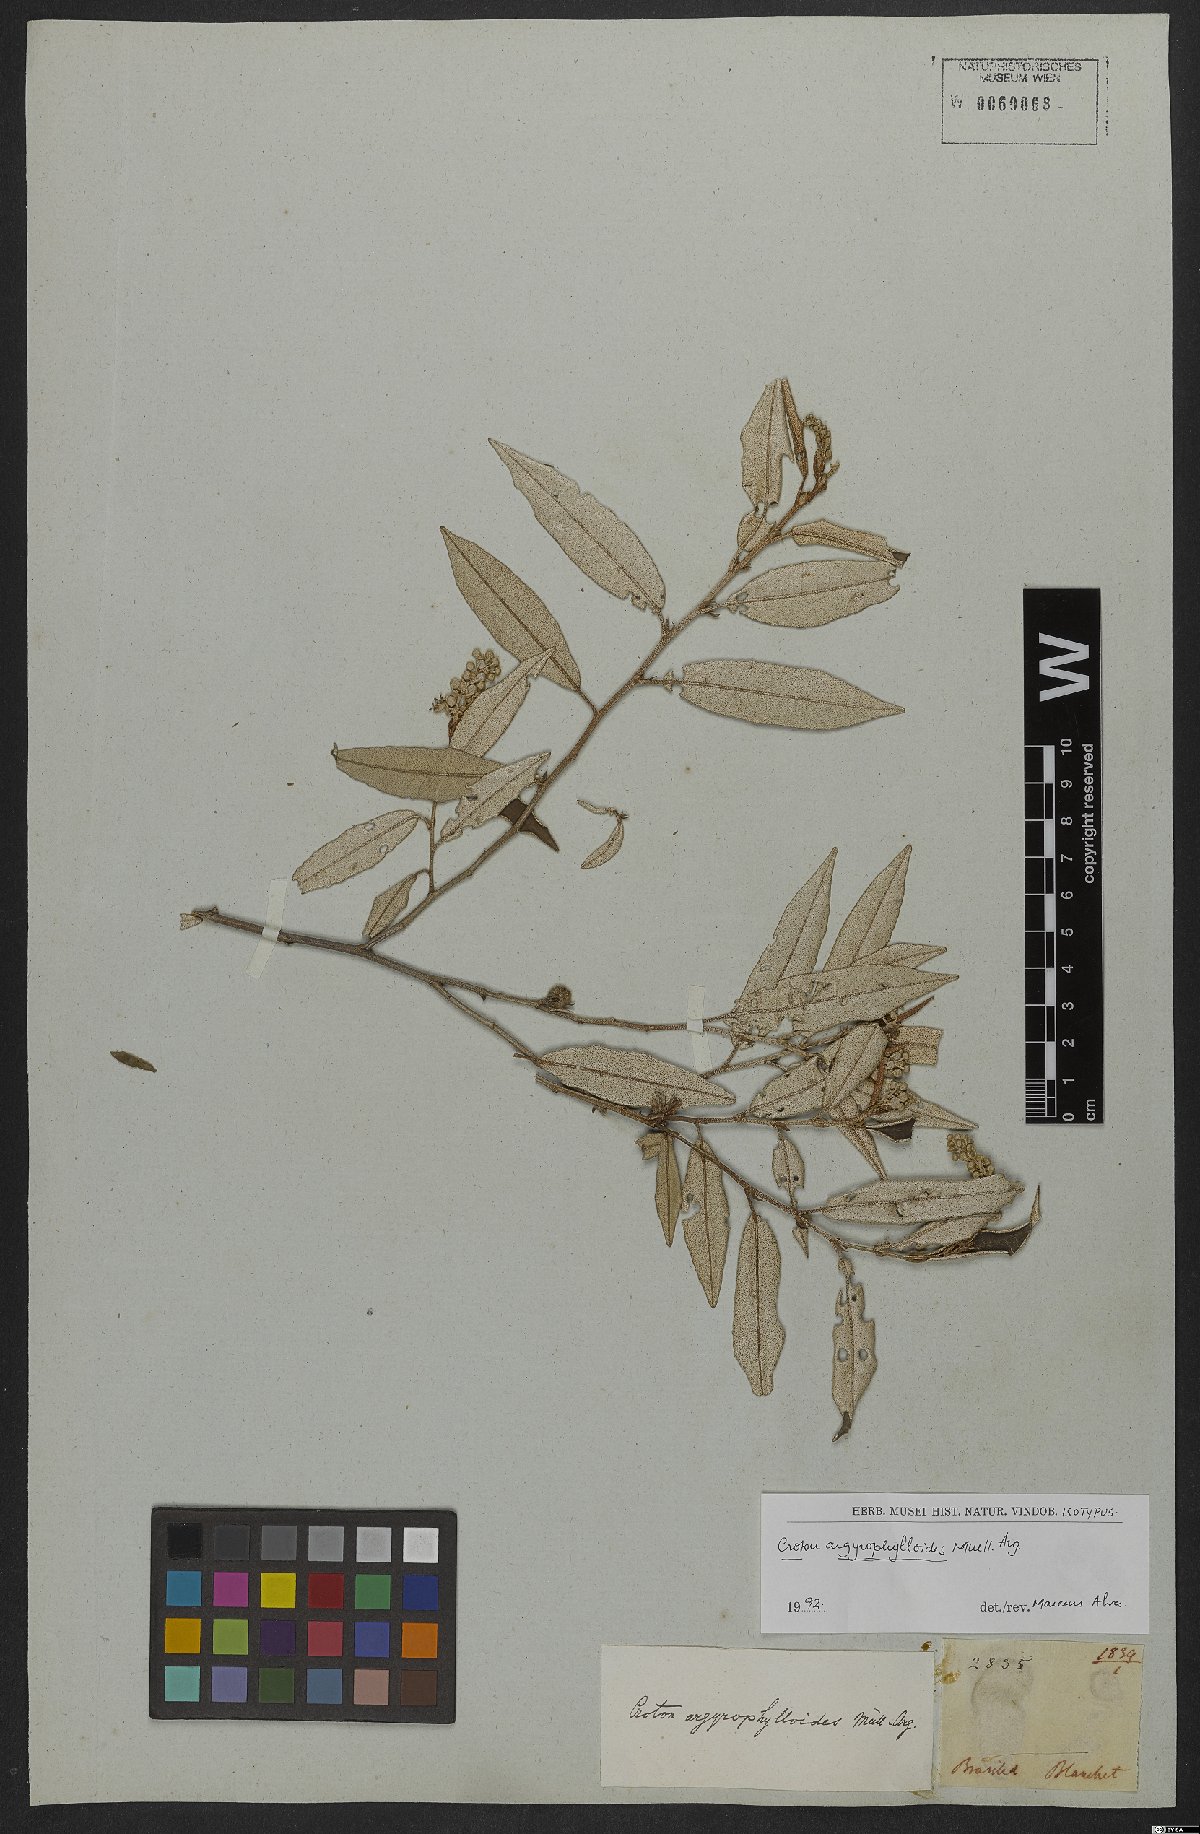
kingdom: Plantae
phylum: Tracheophyta
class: Magnoliopsida
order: Malpighiales
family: Euphorbiaceae
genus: Croton
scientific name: Croton tricolor
